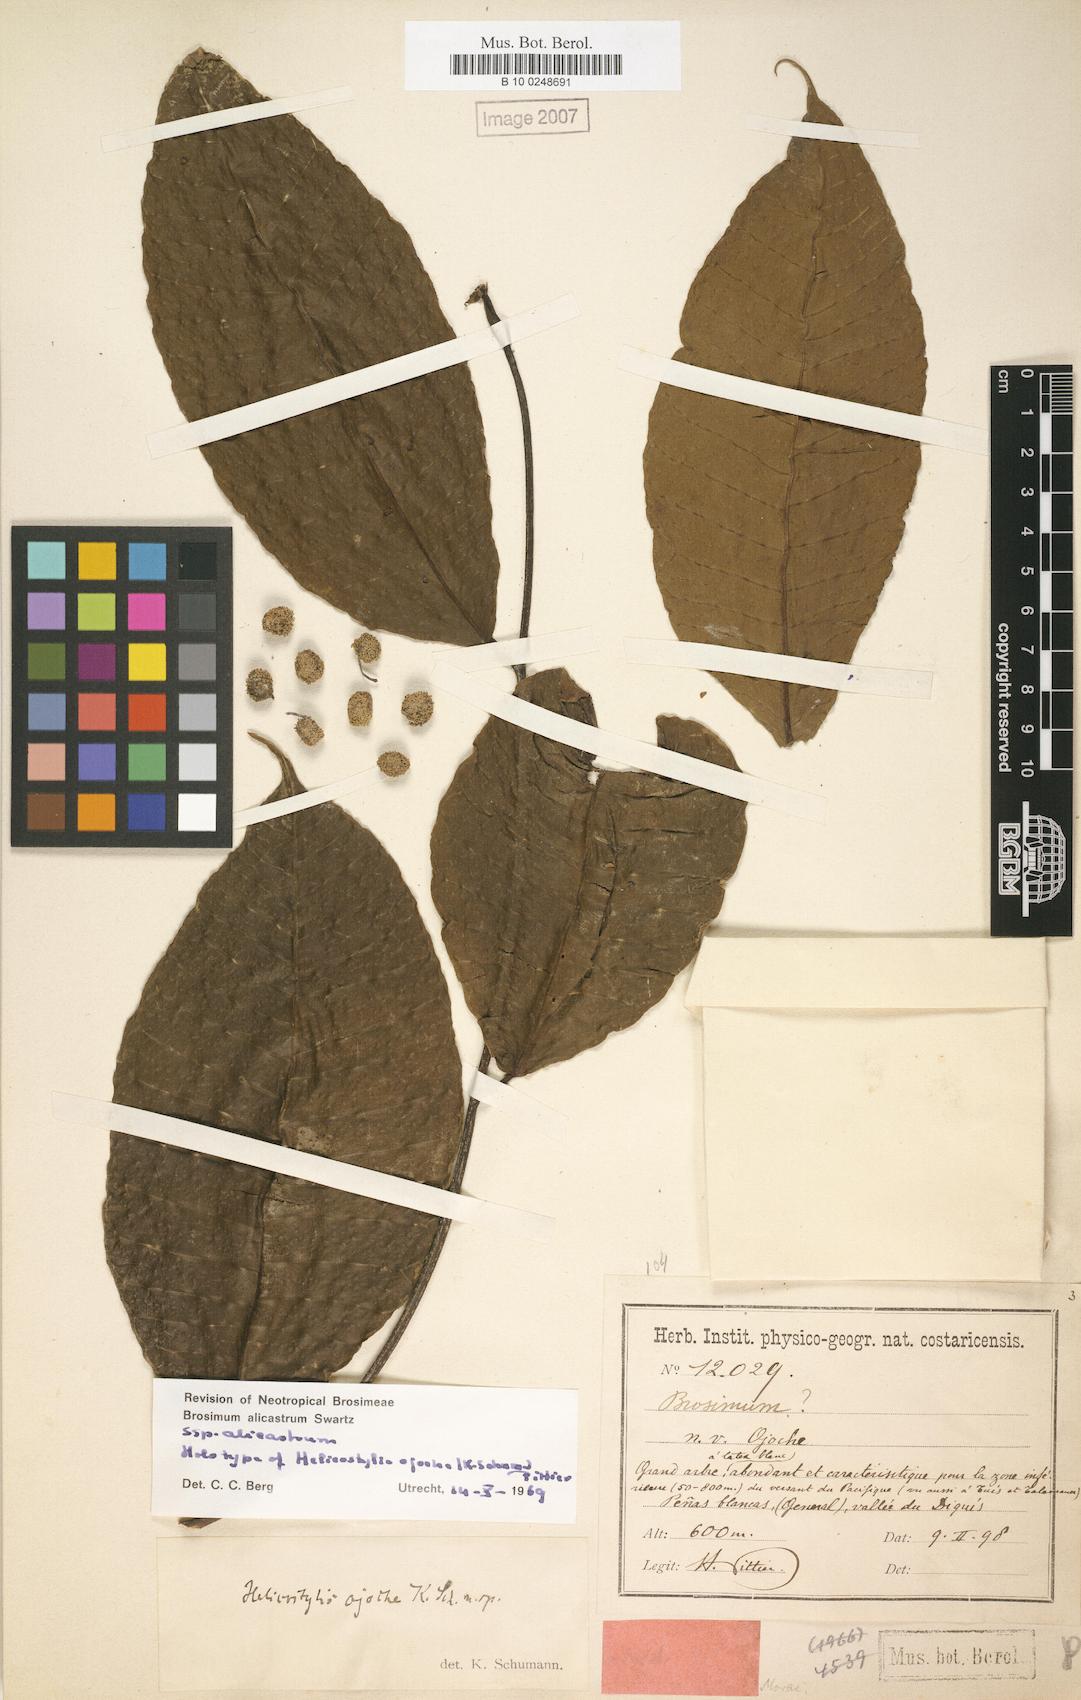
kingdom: Plantae
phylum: Tracheophyta
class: Magnoliopsida
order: Rosales
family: Moraceae
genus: Brosimum
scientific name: Brosimum alicastrum
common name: Breadnut
